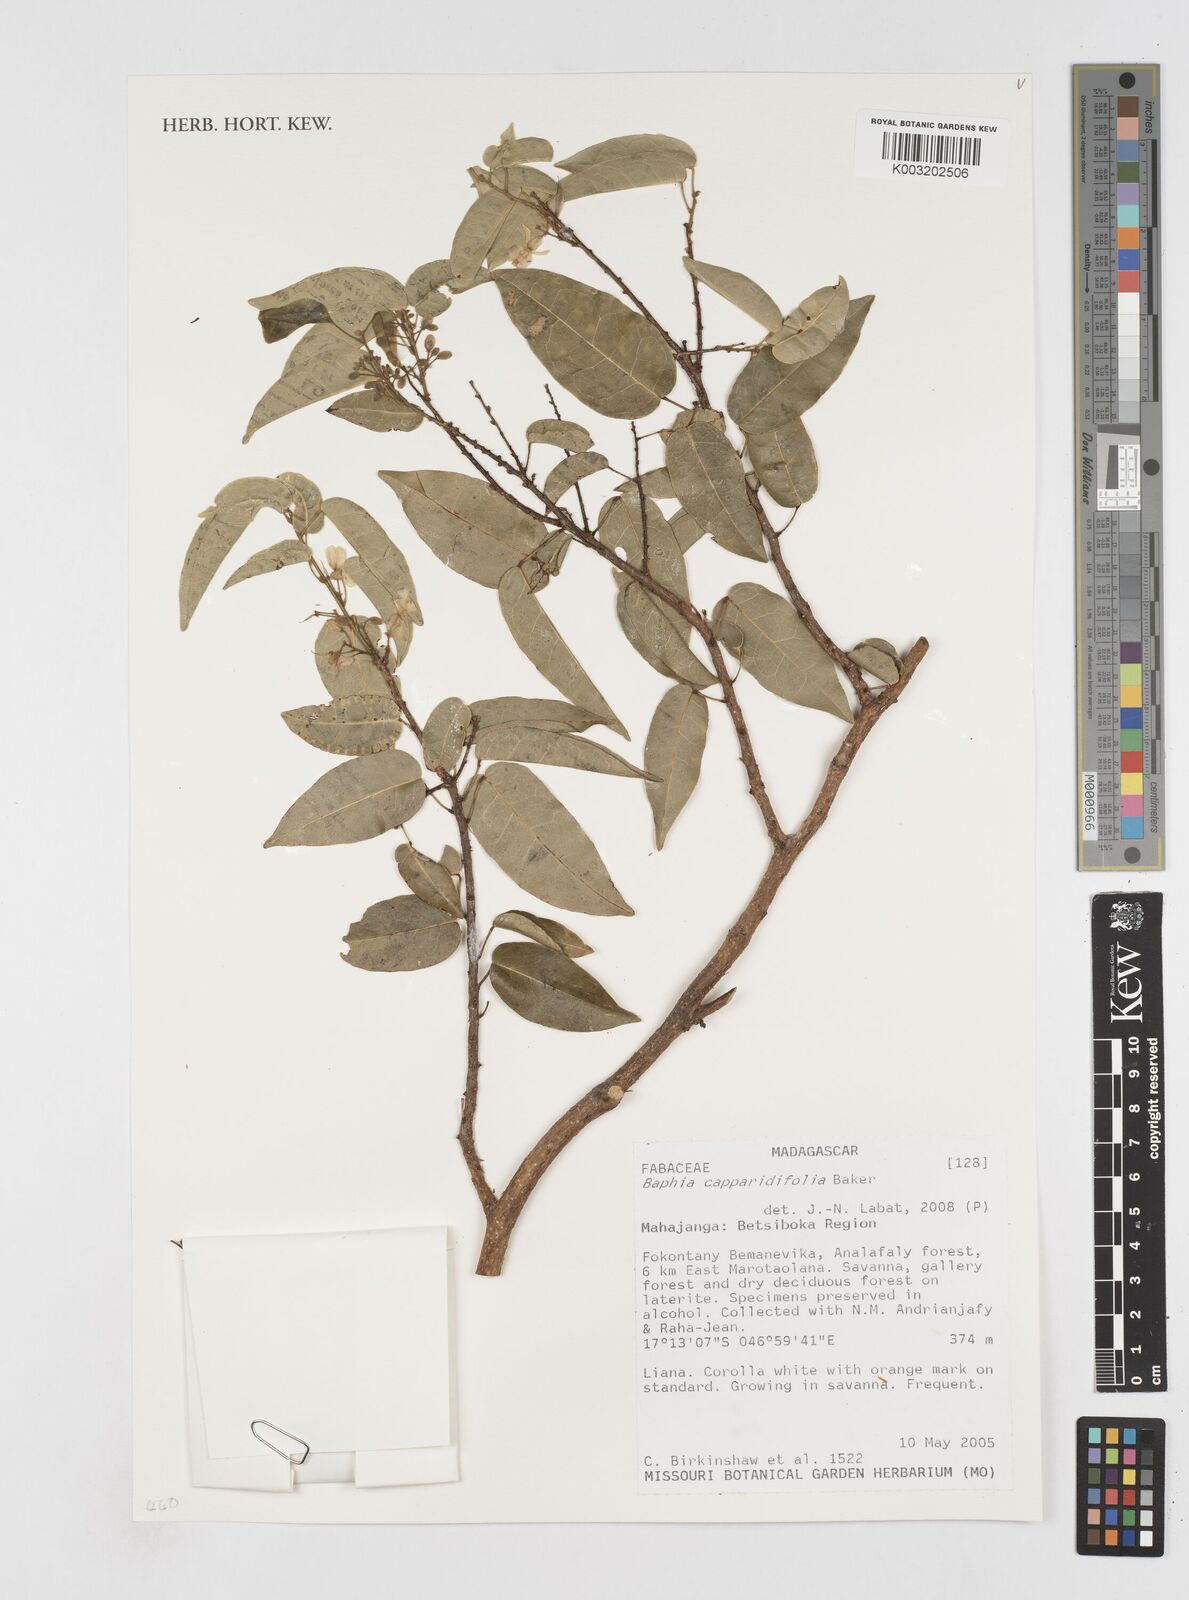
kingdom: Plantae
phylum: Tracheophyta
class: Magnoliopsida
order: Fabales
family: Fabaceae
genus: Baphia
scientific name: Baphia capparidifolia
